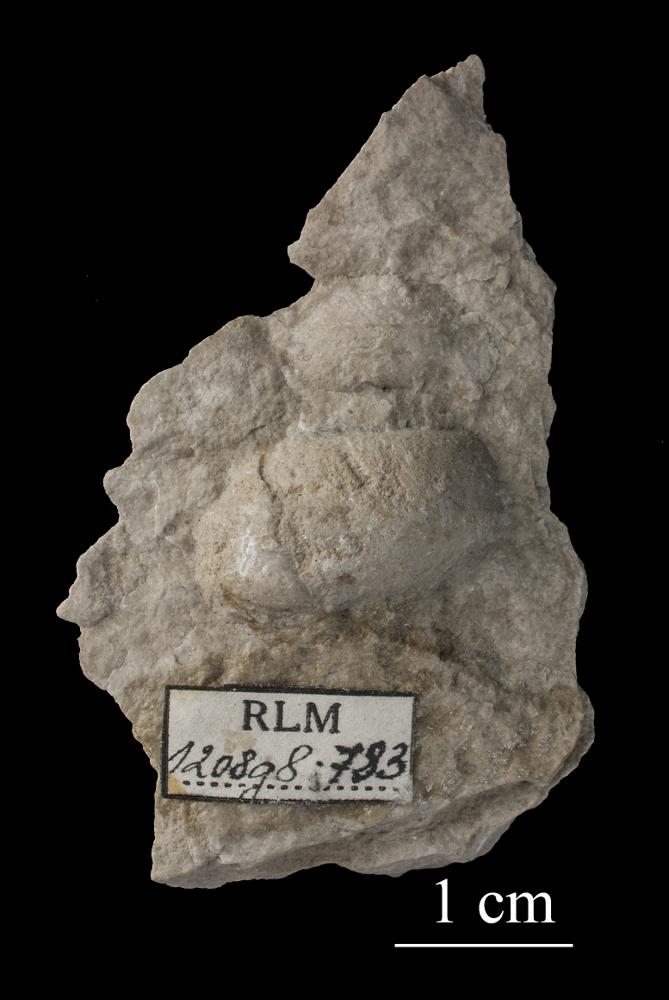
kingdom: Animalia
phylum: Mollusca
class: Gastropoda
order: Pleurotomariida
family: Murchisoniidae
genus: Murchisonia
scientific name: Murchisonia
